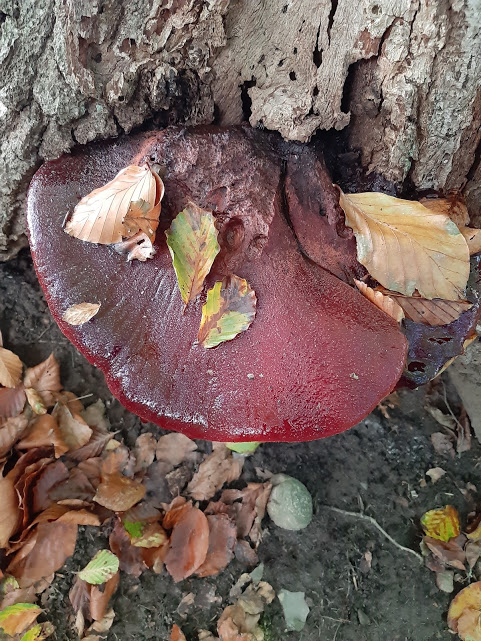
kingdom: Fungi
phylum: Basidiomycota
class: Agaricomycetes
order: Agaricales
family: Fistulinaceae
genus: Fistulina
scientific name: Fistulina hepatica
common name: oksetunge
